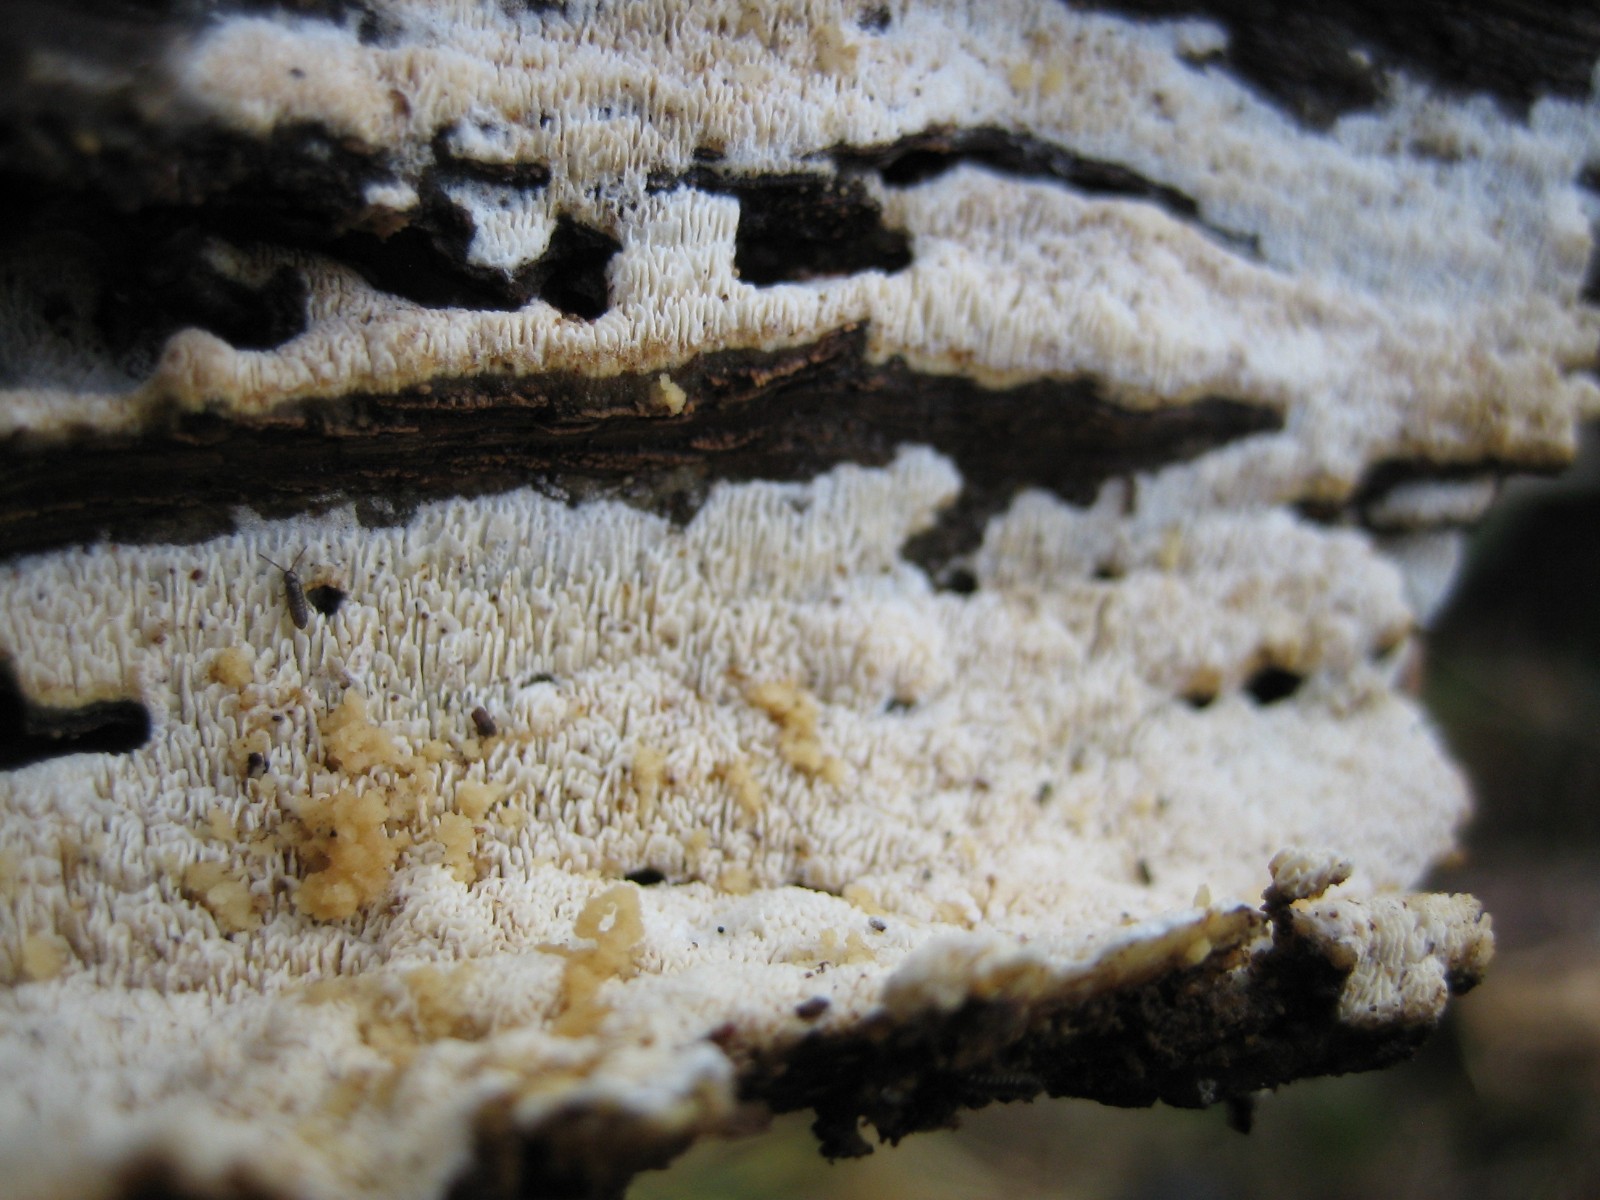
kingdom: Fungi
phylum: Basidiomycota
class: Agaricomycetes
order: Hymenochaetales
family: Schizoporaceae
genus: Schizopora
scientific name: Schizopora paradoxa
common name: hvid tandsvamp
